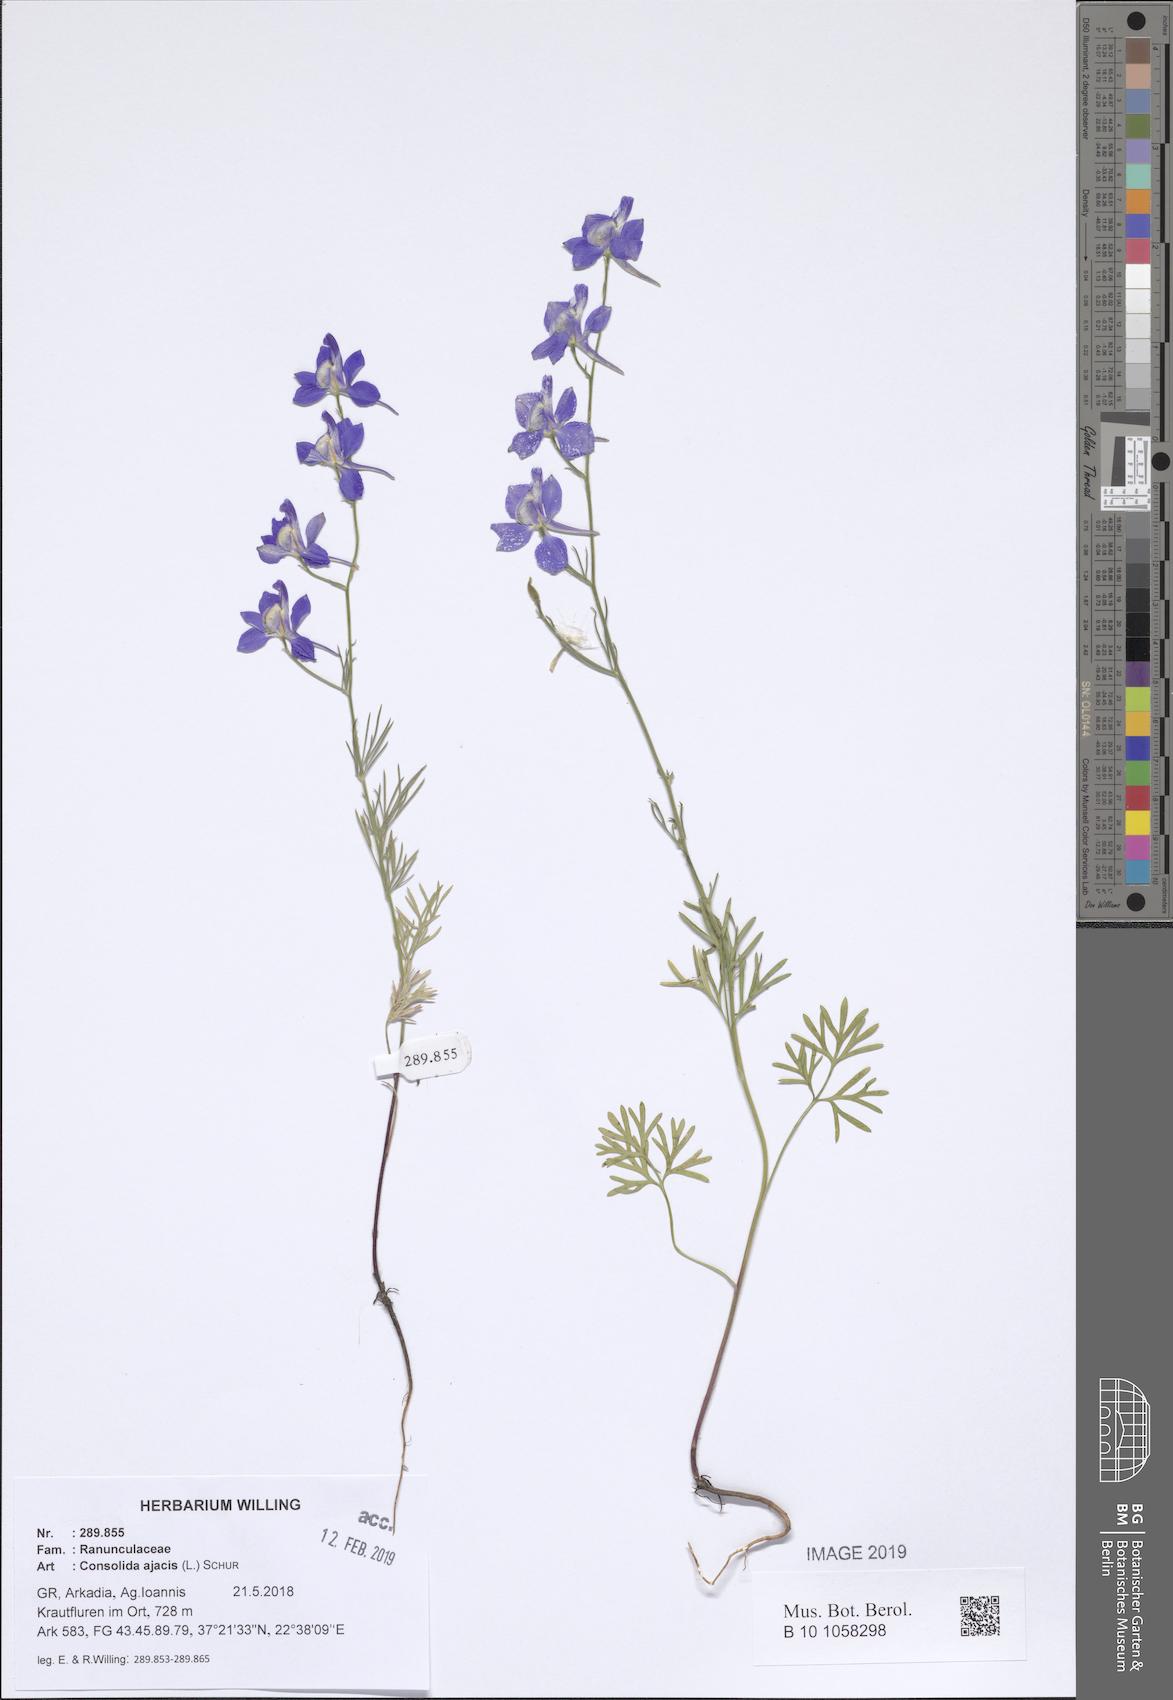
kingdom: Plantae
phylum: Tracheophyta
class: Magnoliopsida
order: Ranunculales
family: Ranunculaceae
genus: Delphinium
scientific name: Delphinium ajacis
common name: Doubtful knight's-spur
